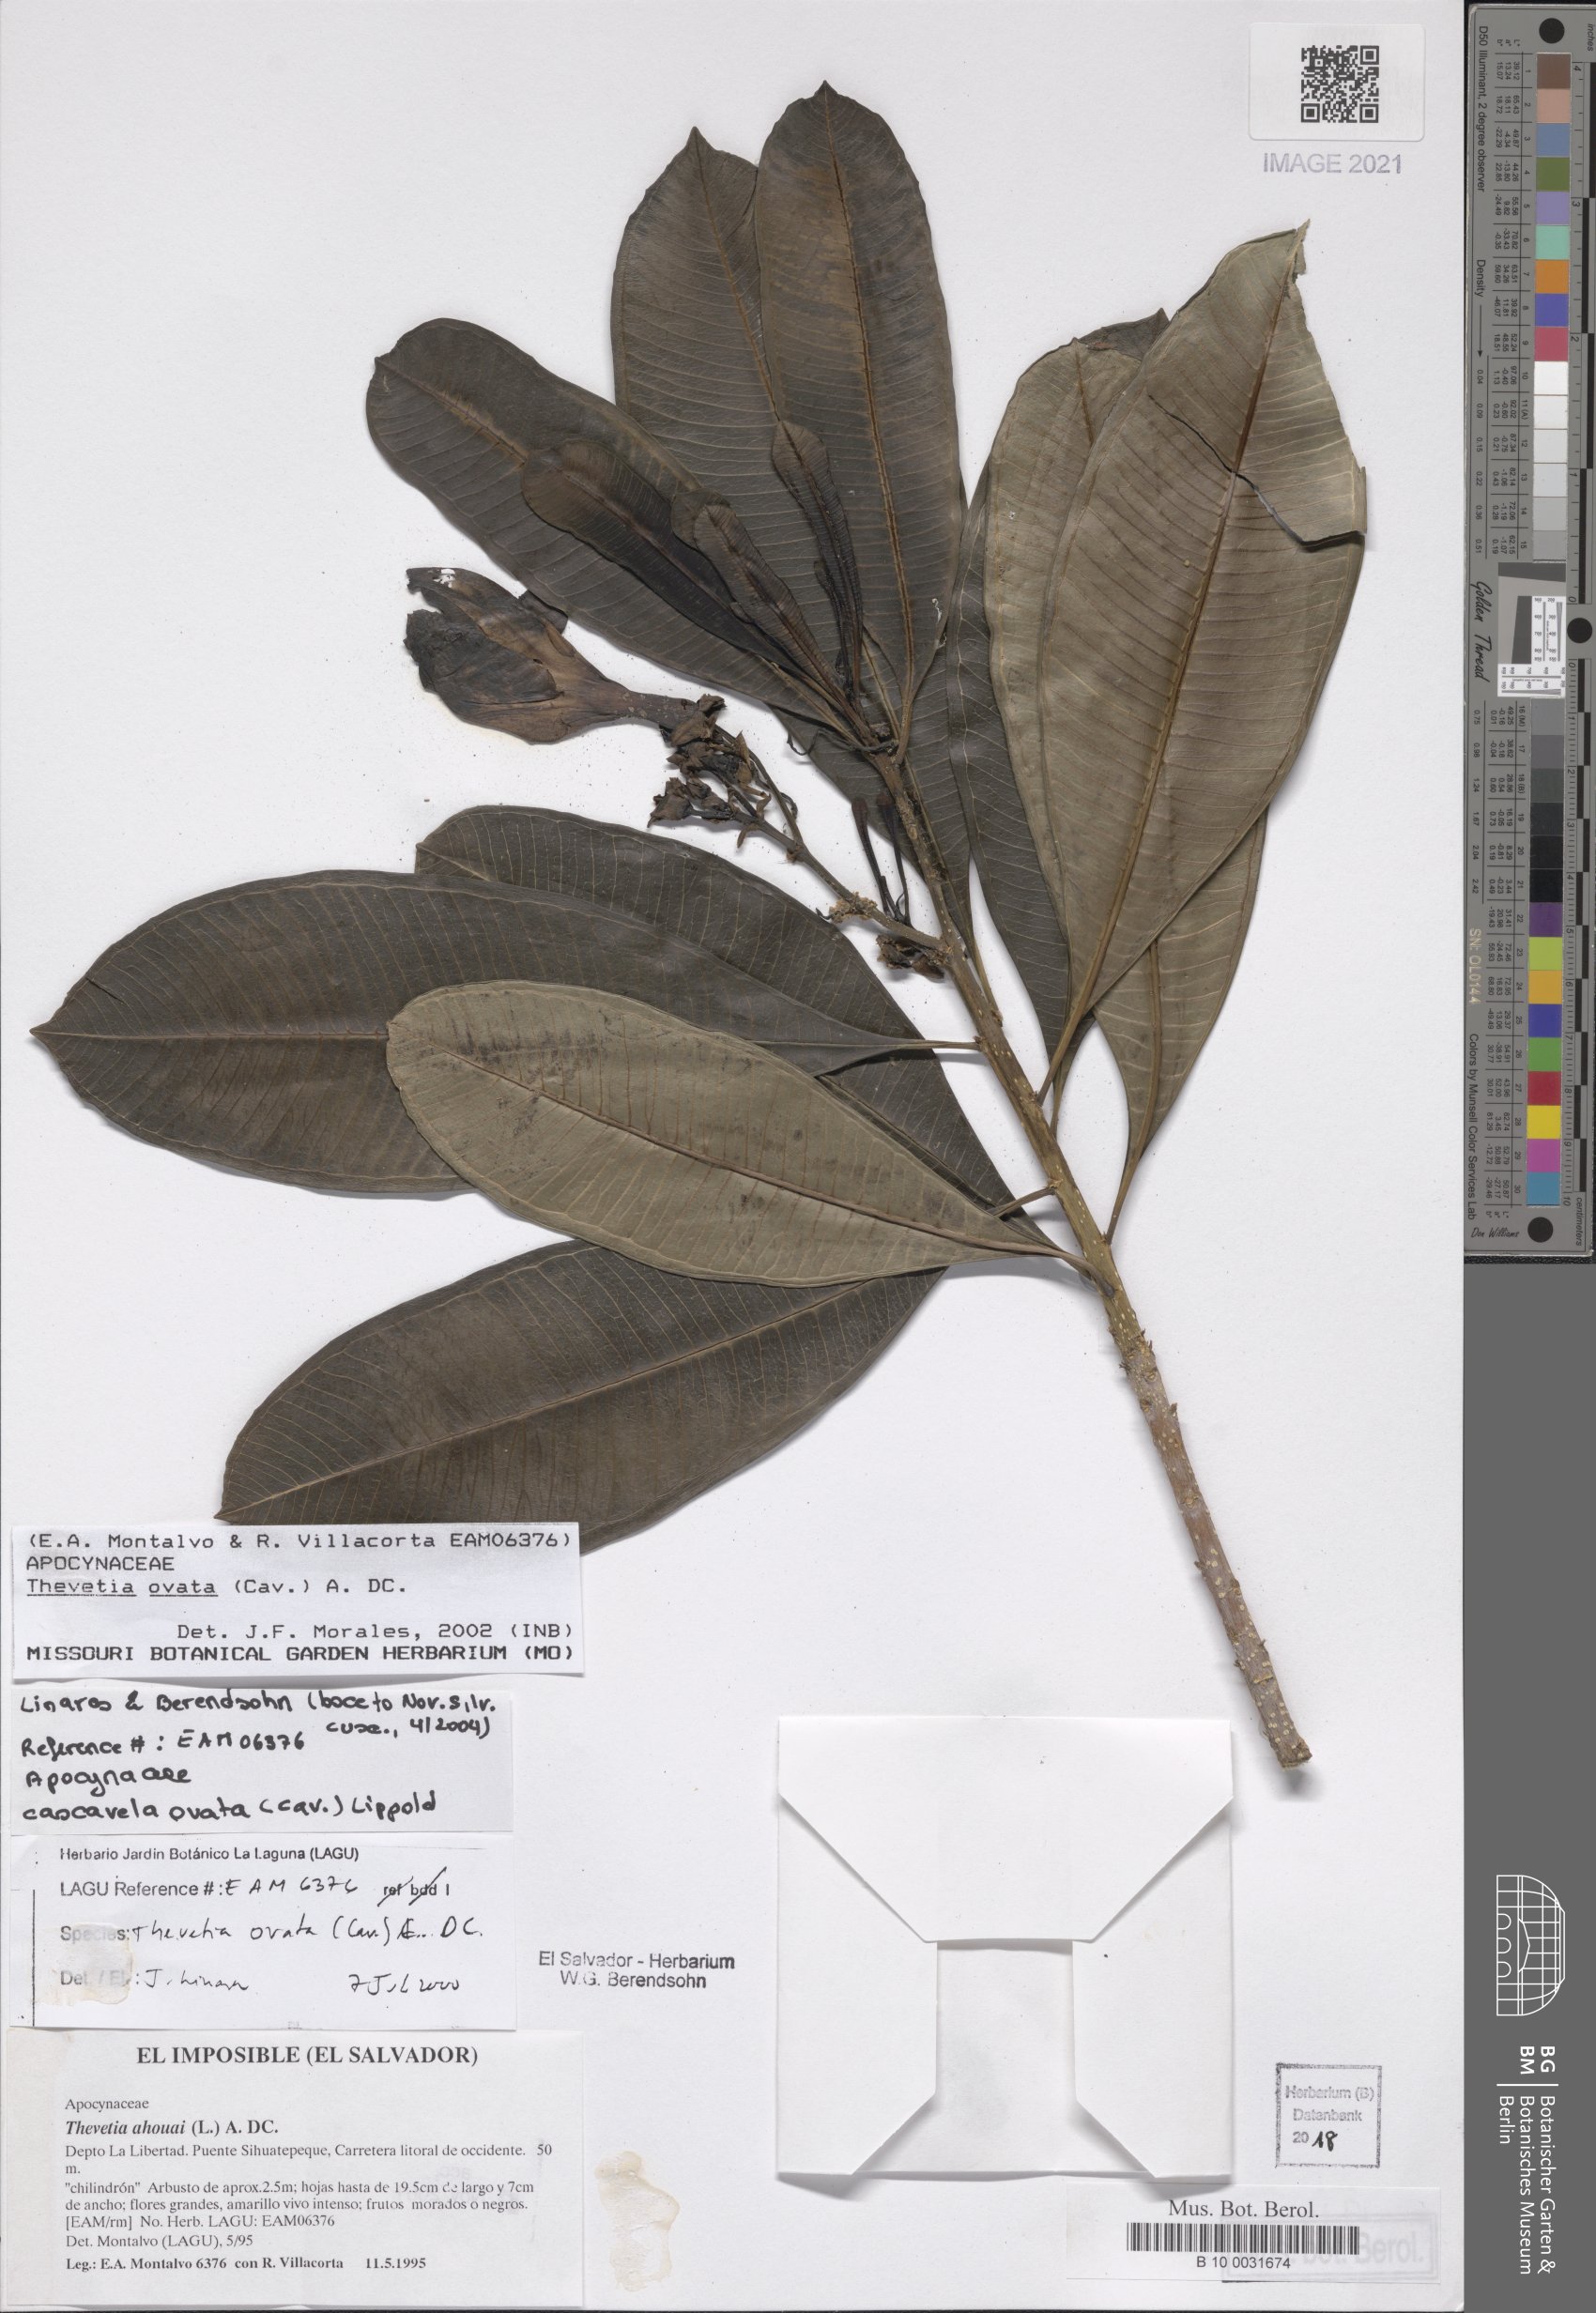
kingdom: Plantae
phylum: Tracheophyta
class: Magnoliopsida
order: Gentianales
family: Apocynaceae
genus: Cascabela
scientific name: Cascabela ovata
